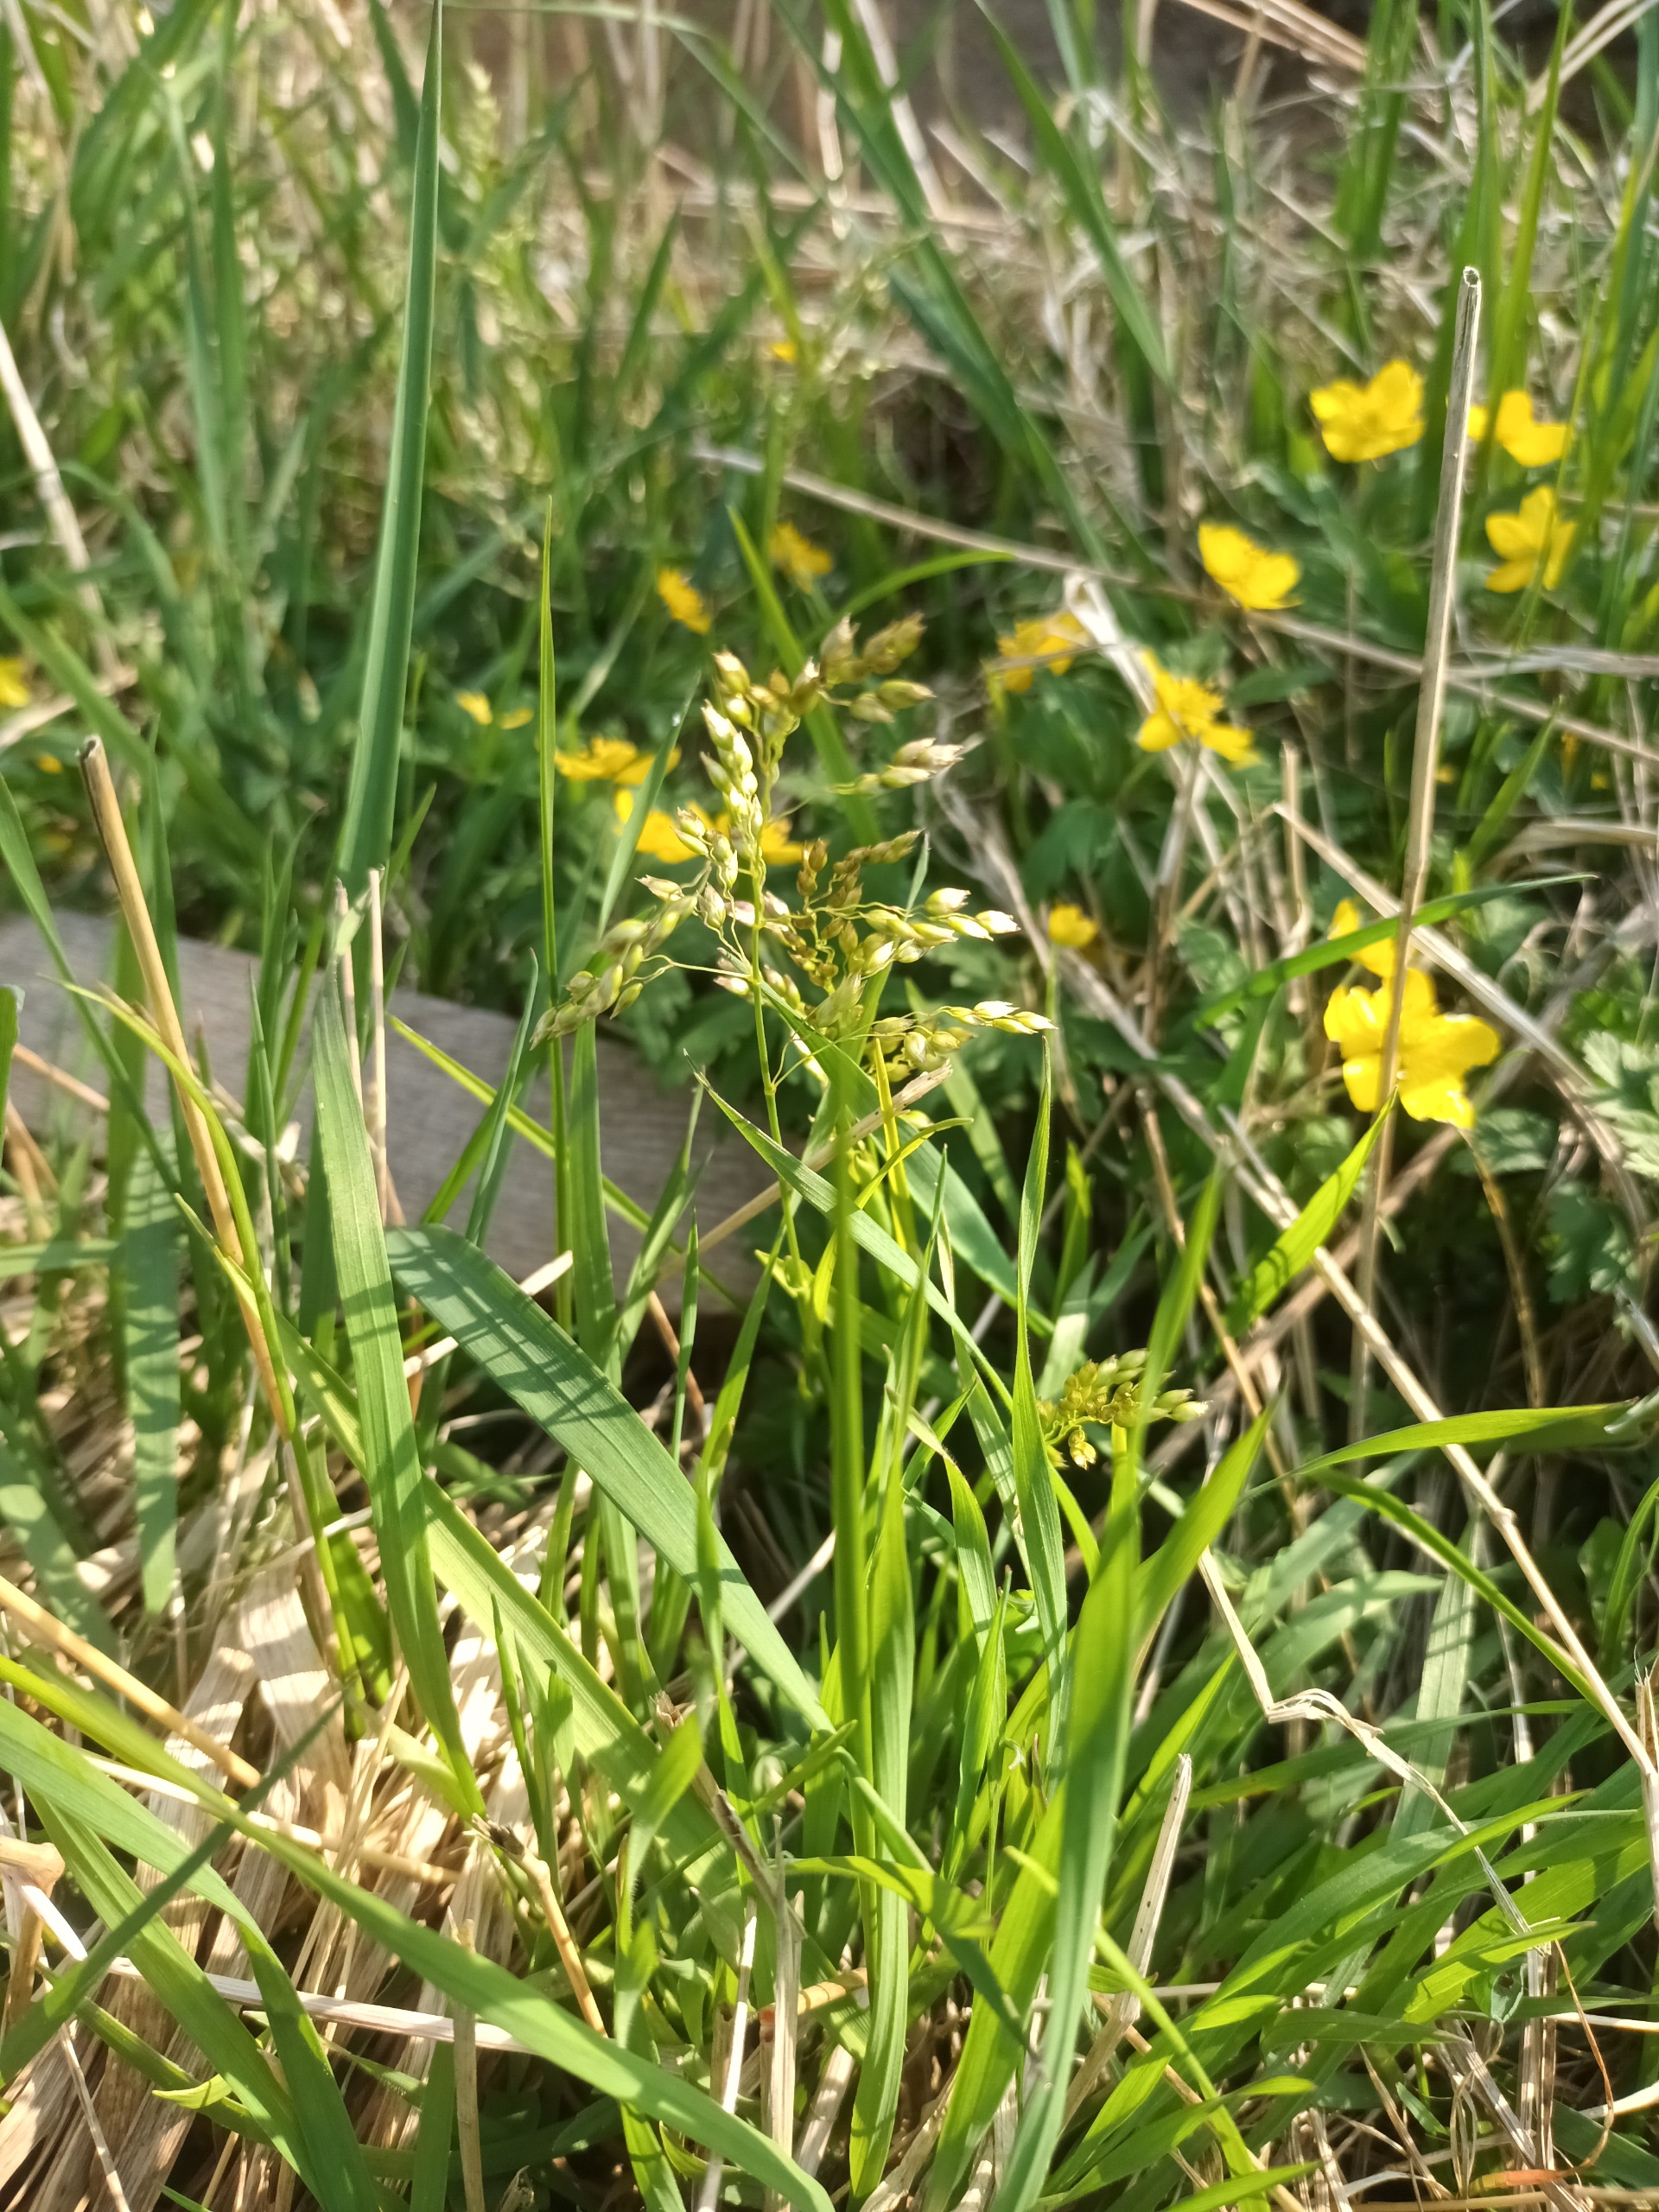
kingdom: Plantae
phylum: Tracheophyta
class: Liliopsida
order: Poales
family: Poaceae
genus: Anthoxanthum
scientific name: Anthoxanthum nitens
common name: Festgræs
